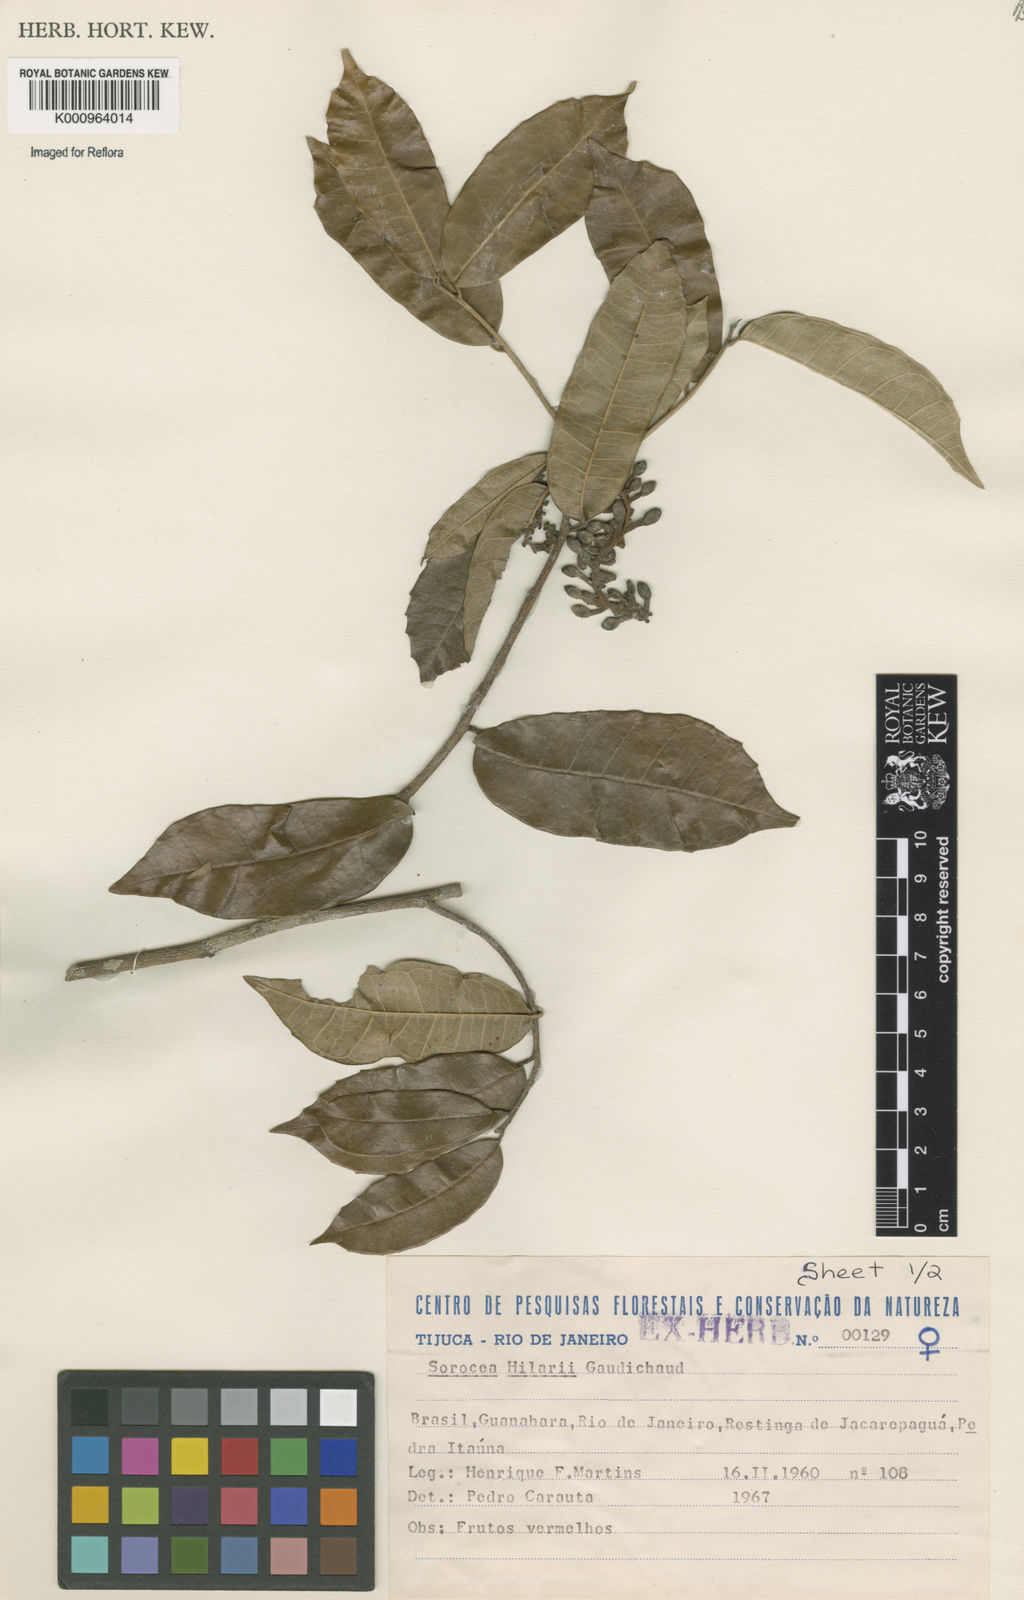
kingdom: Plantae
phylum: Tracheophyta
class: Magnoliopsida
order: Rosales
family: Moraceae
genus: Sorocea
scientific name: Sorocea hilarii
